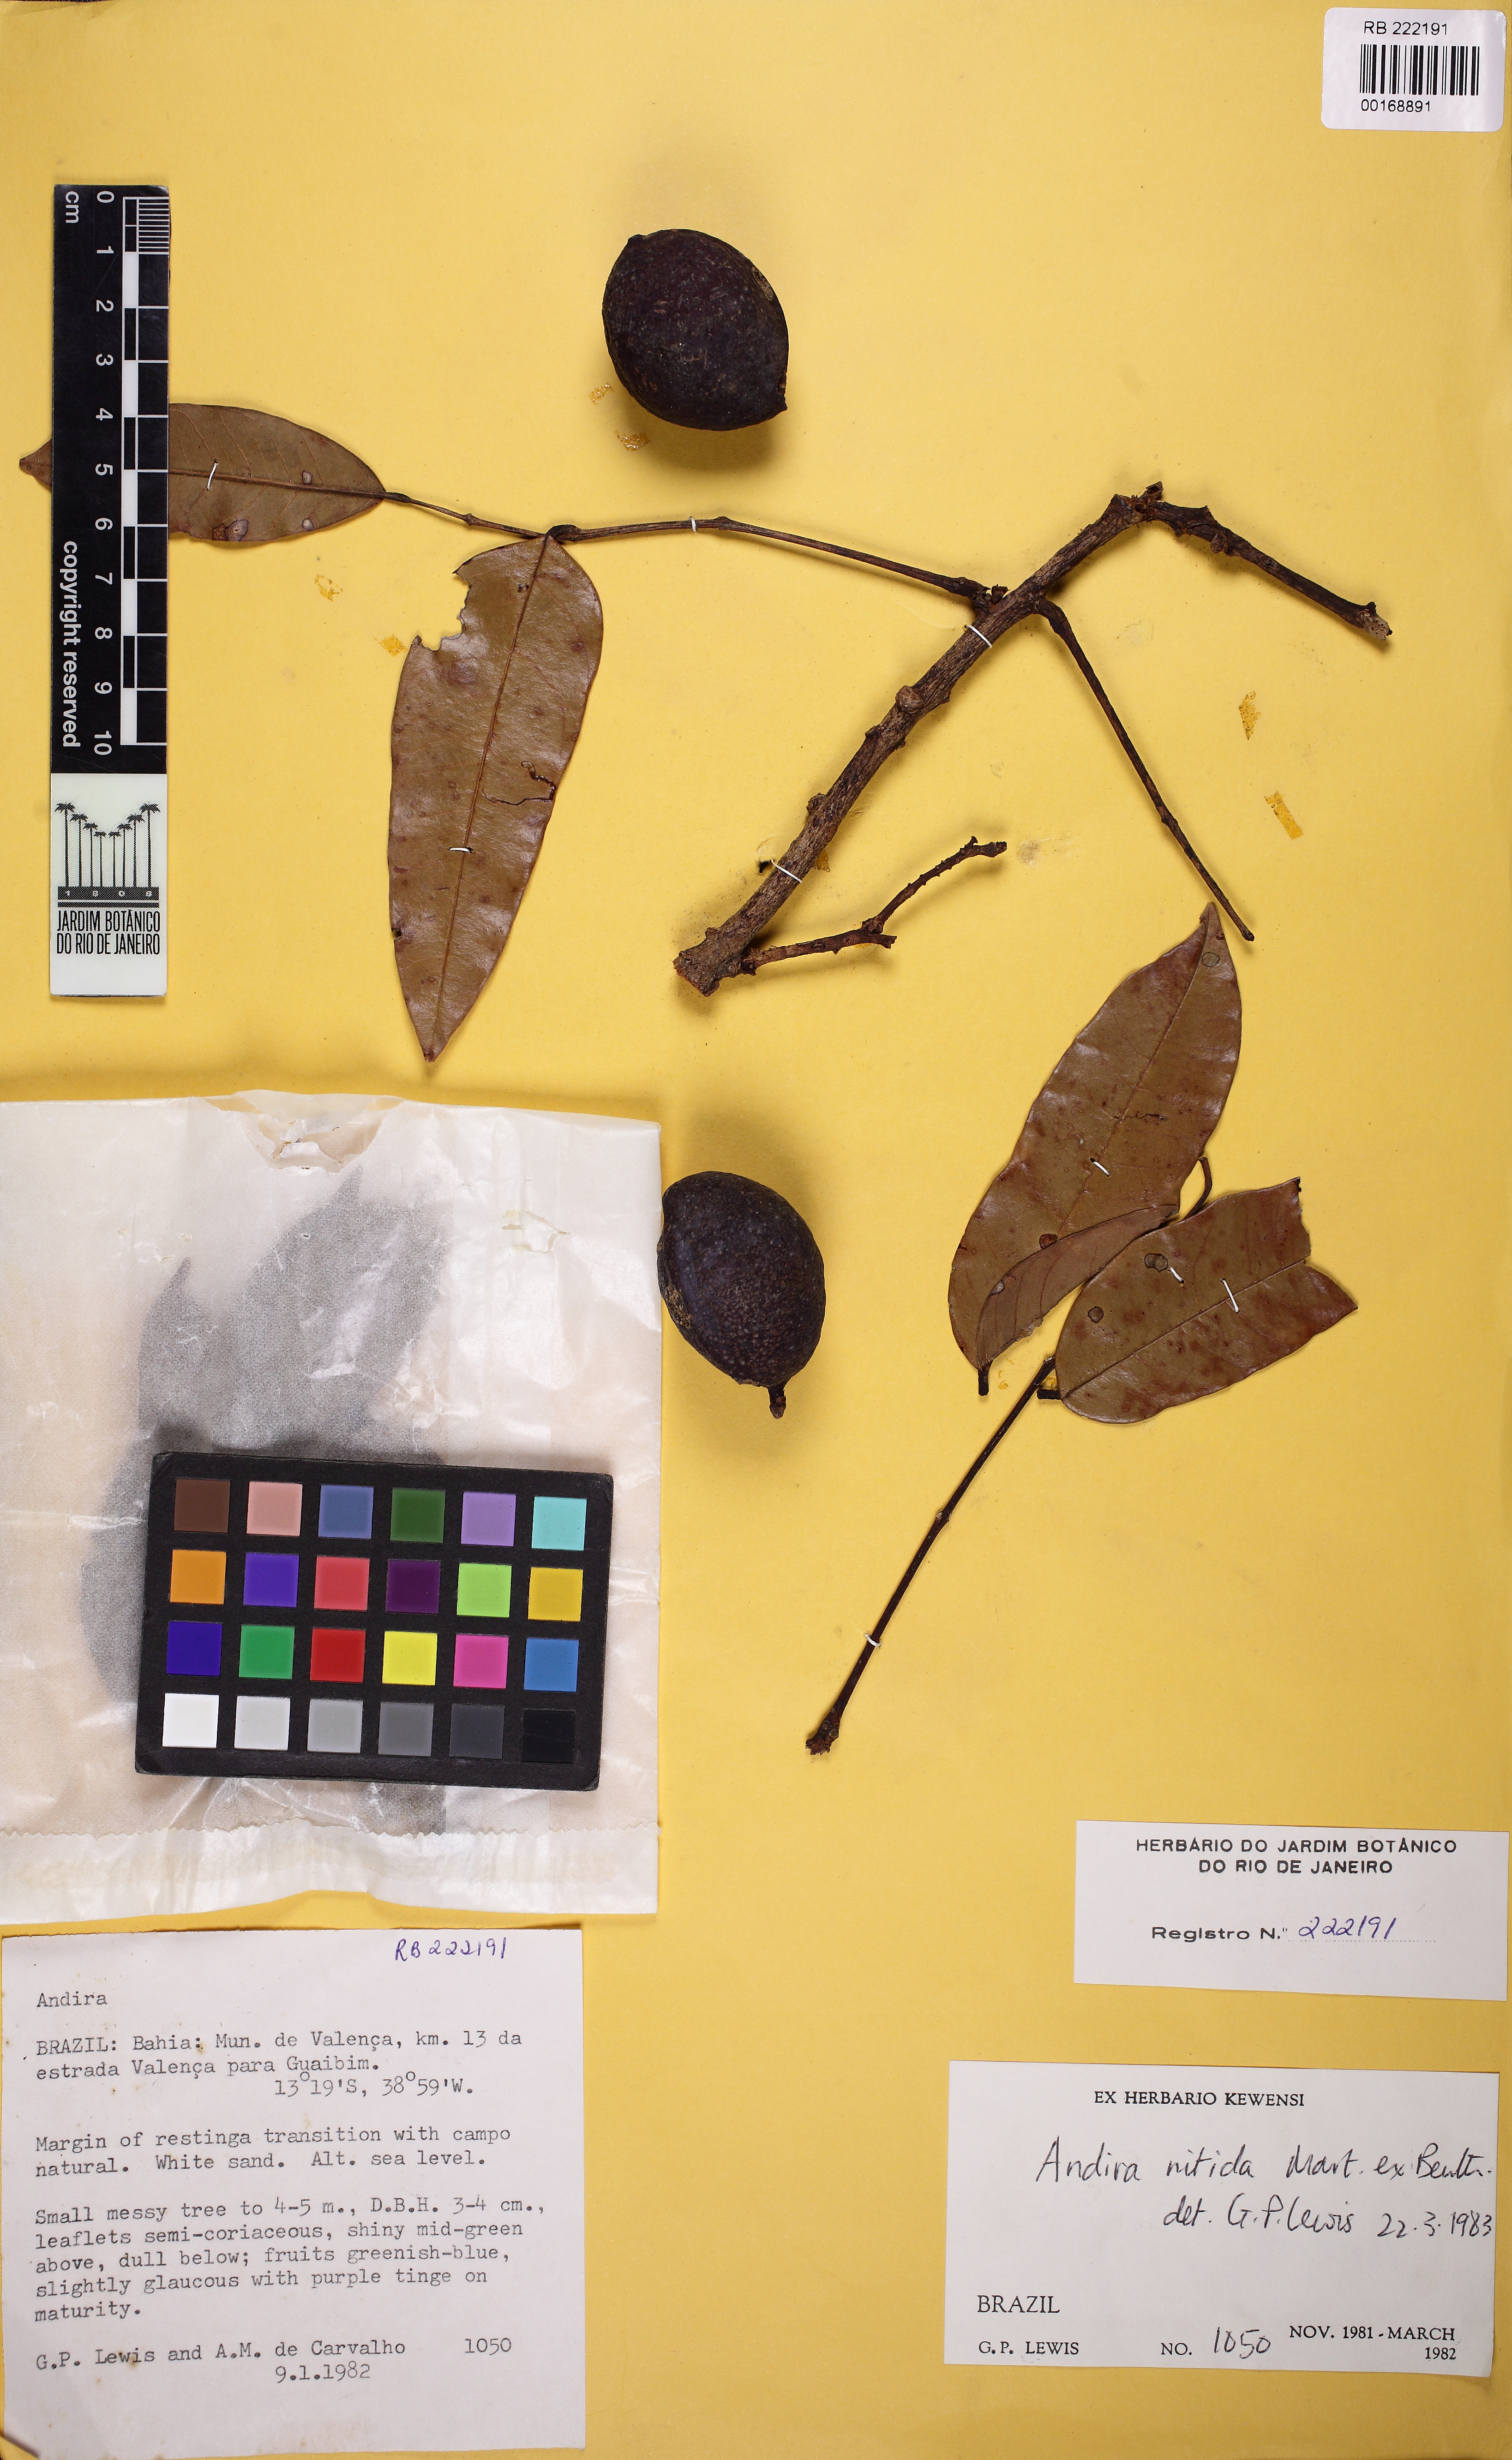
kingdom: Plantae
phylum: Tracheophyta
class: Magnoliopsida
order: Fabales
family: Fabaceae
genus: Andira
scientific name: Andira nitida
